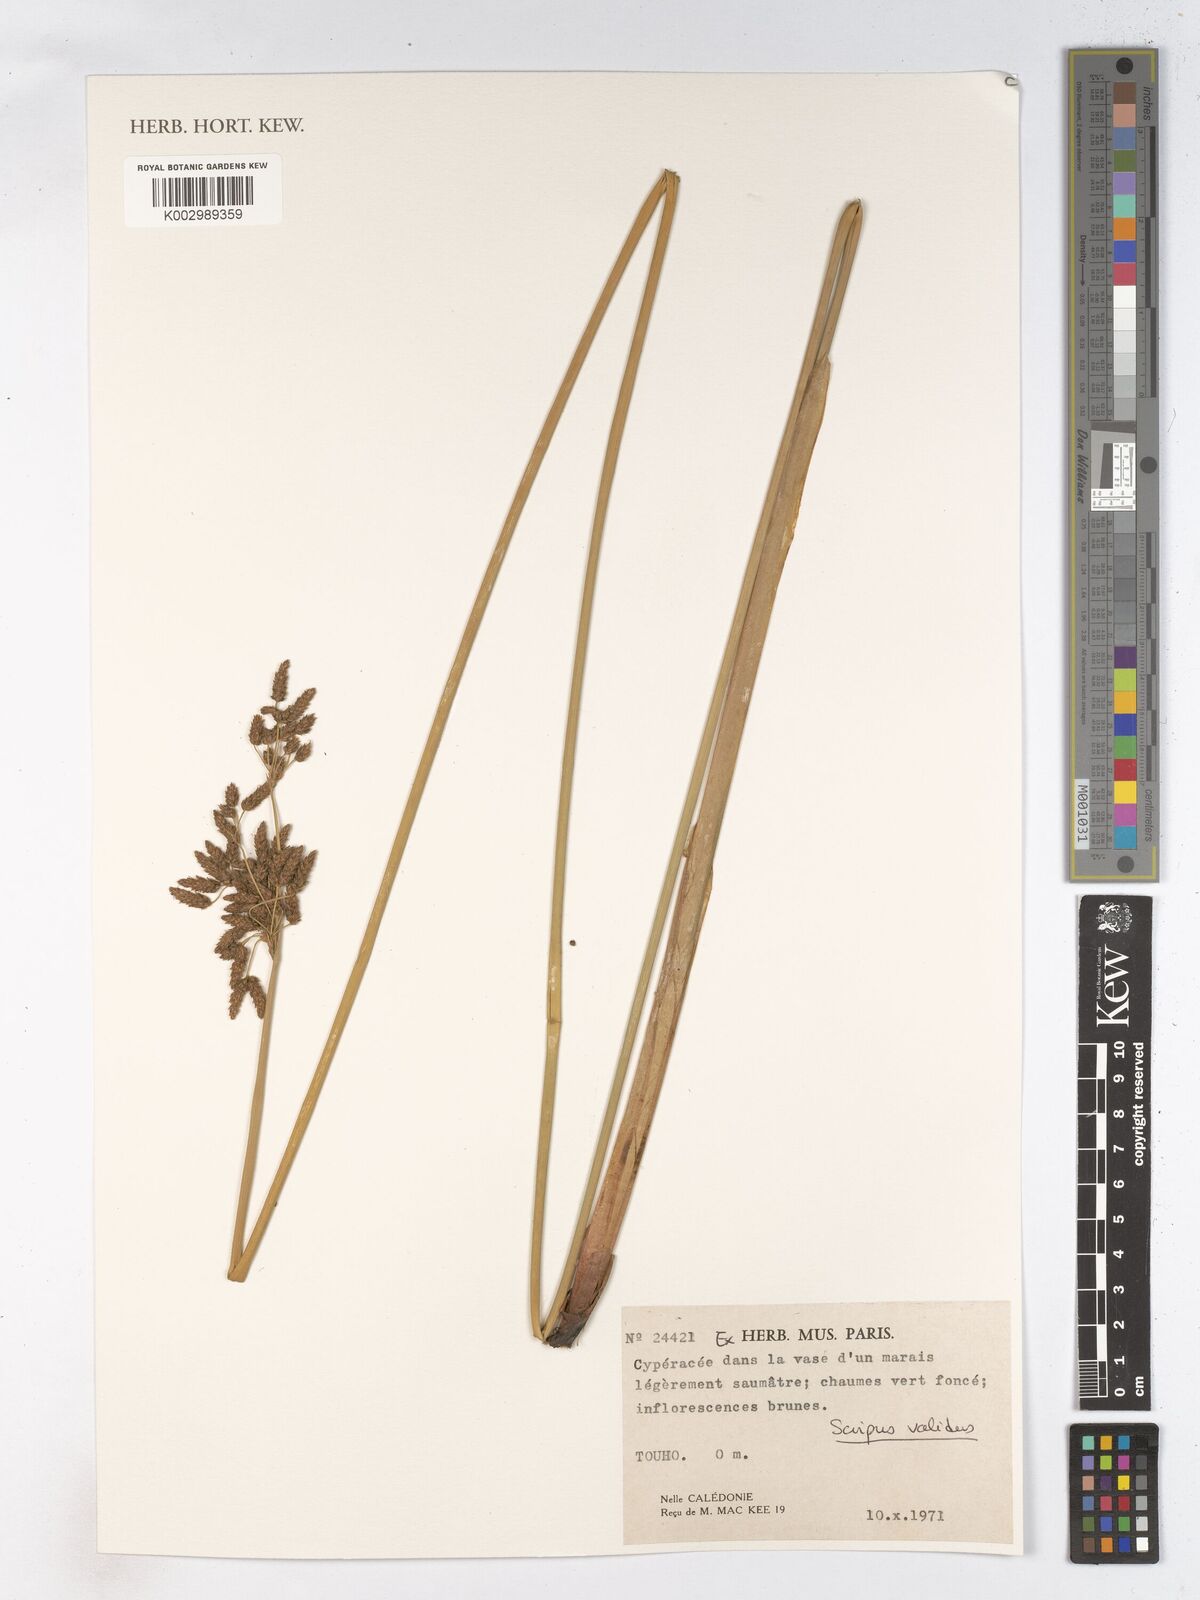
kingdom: Plantae
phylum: Tracheophyta
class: Liliopsida
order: Poales
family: Cyperaceae
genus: Schoenoplectus
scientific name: Schoenoplectus lacustris
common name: Common club-rush
